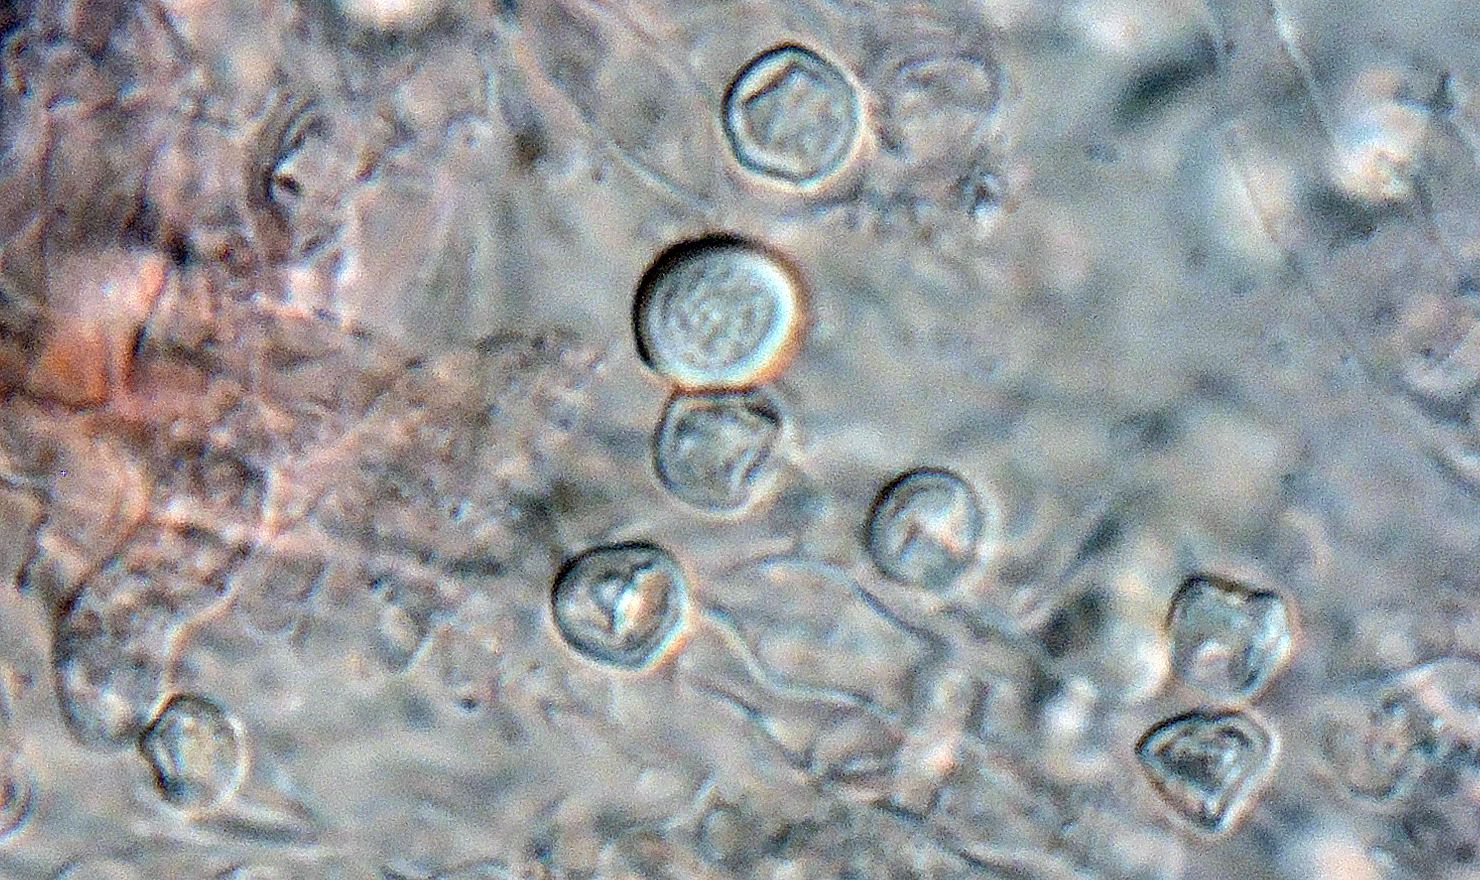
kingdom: Fungi
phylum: Basidiomycota
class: Agaricomycetes
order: Agaricales
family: Cyphellaceae
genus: Granulobasidium
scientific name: Granulobasidium vellereum
